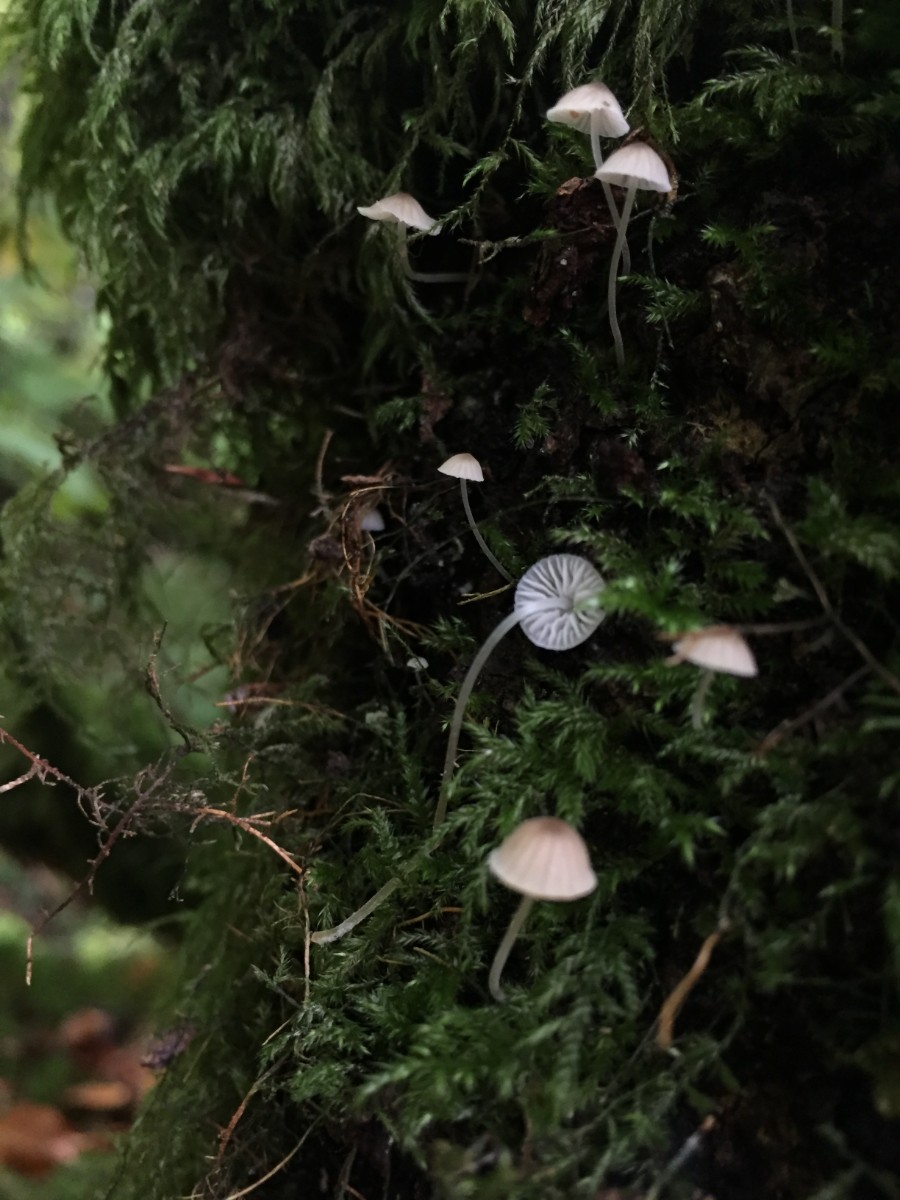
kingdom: Fungi
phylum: Basidiomycota
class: Agaricomycetes
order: Agaricales
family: Porotheleaceae
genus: Phloeomana
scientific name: Phloeomana hiemalis
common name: sen huesvamp
